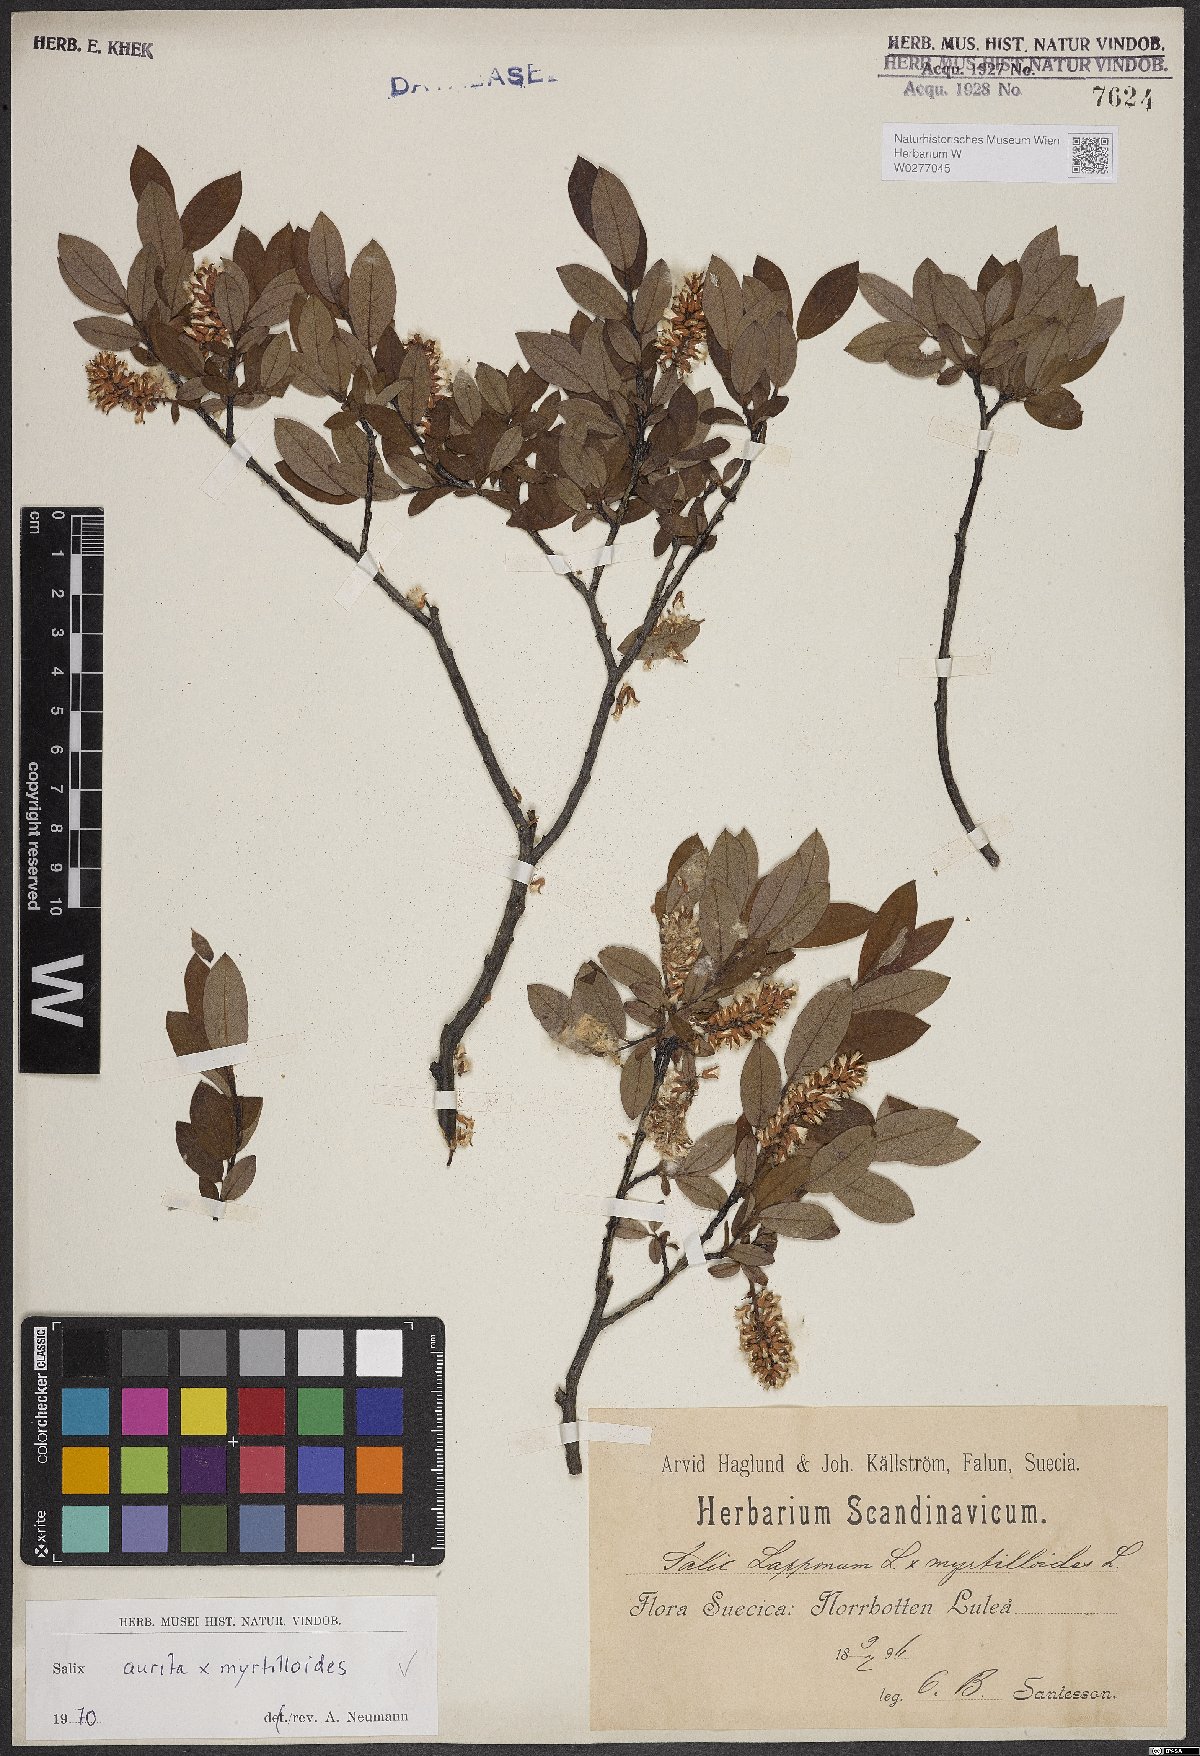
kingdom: Plantae
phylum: Tracheophyta
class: Magnoliopsida
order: Malpighiales
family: Salicaceae
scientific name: Salicaceae
